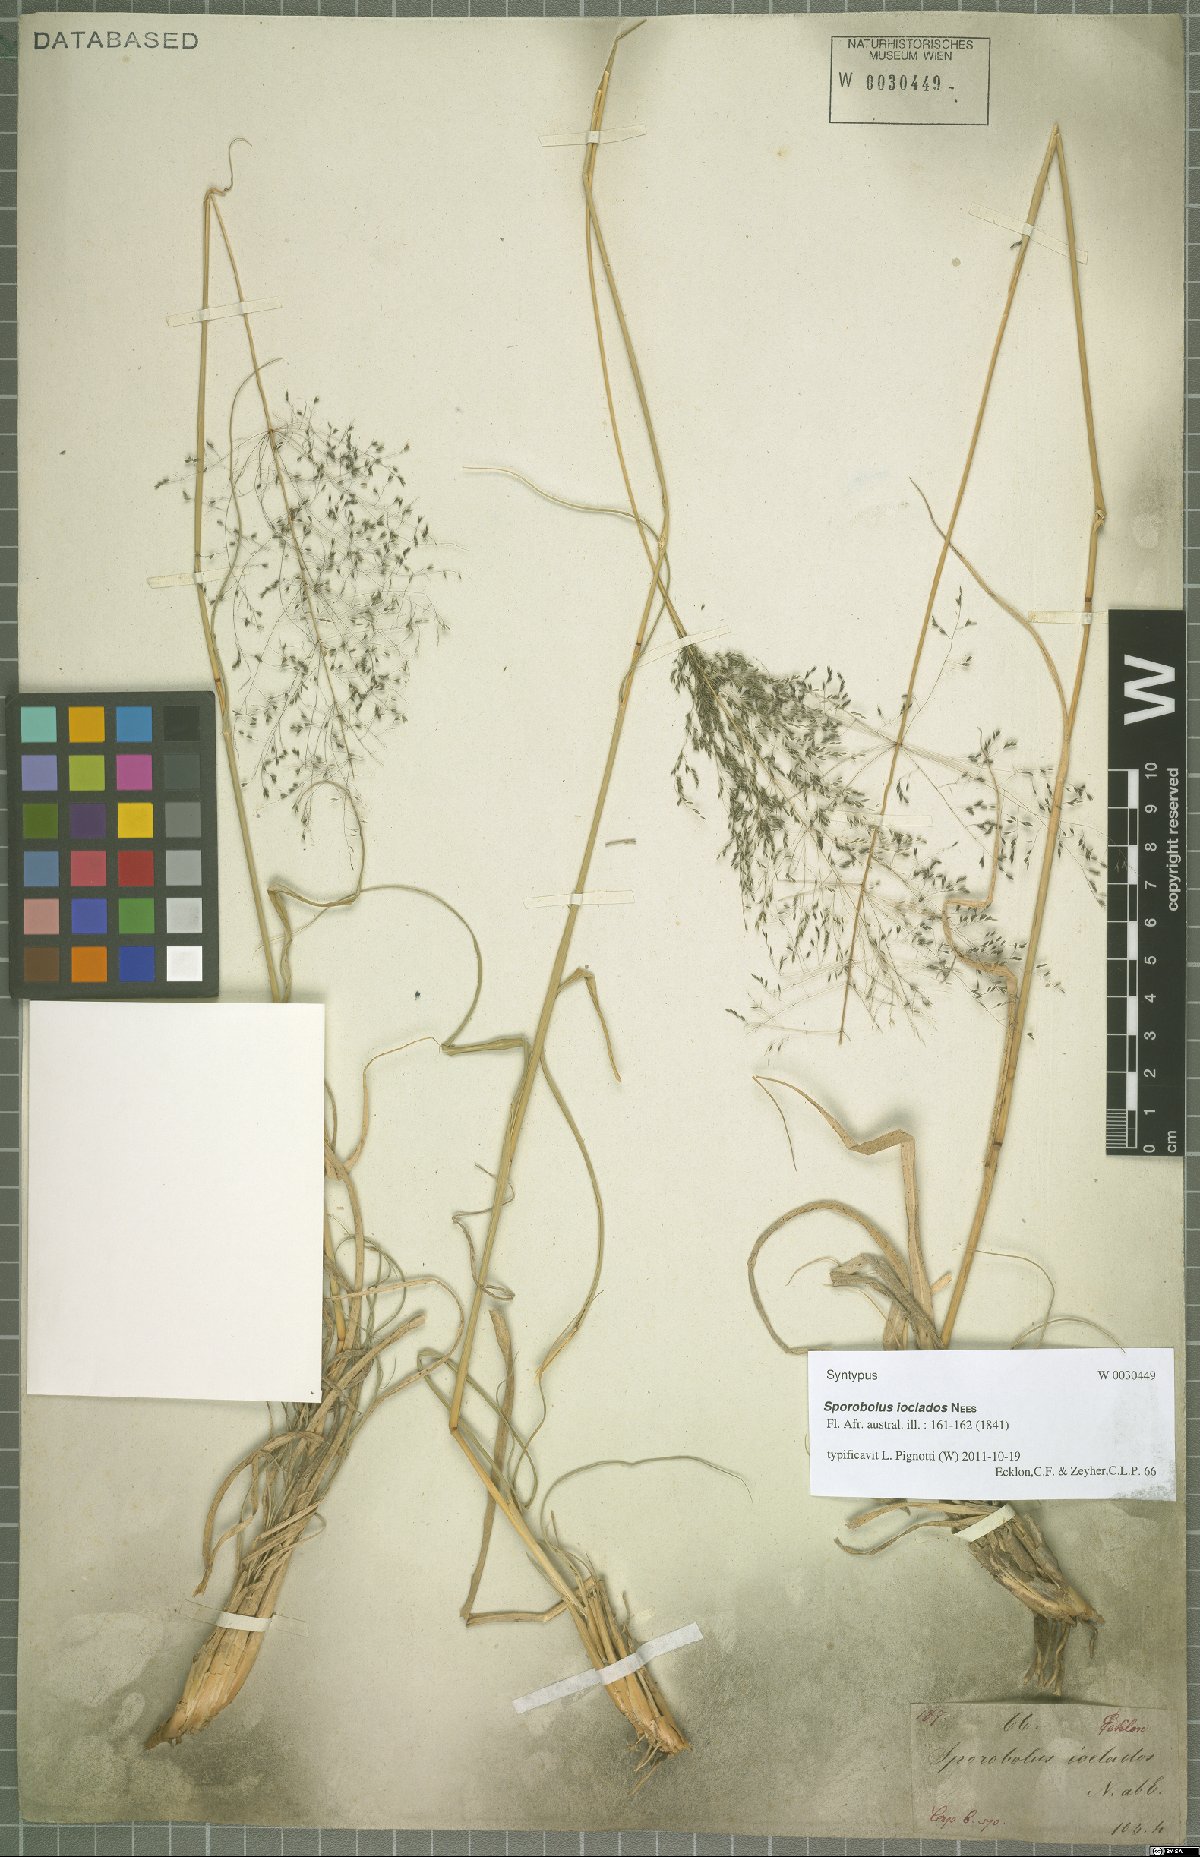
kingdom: Plantae
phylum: Tracheophyta
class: Liliopsida
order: Poales
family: Poaceae
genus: Sporobolus
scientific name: Sporobolus ioclados
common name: Pan dropseed
